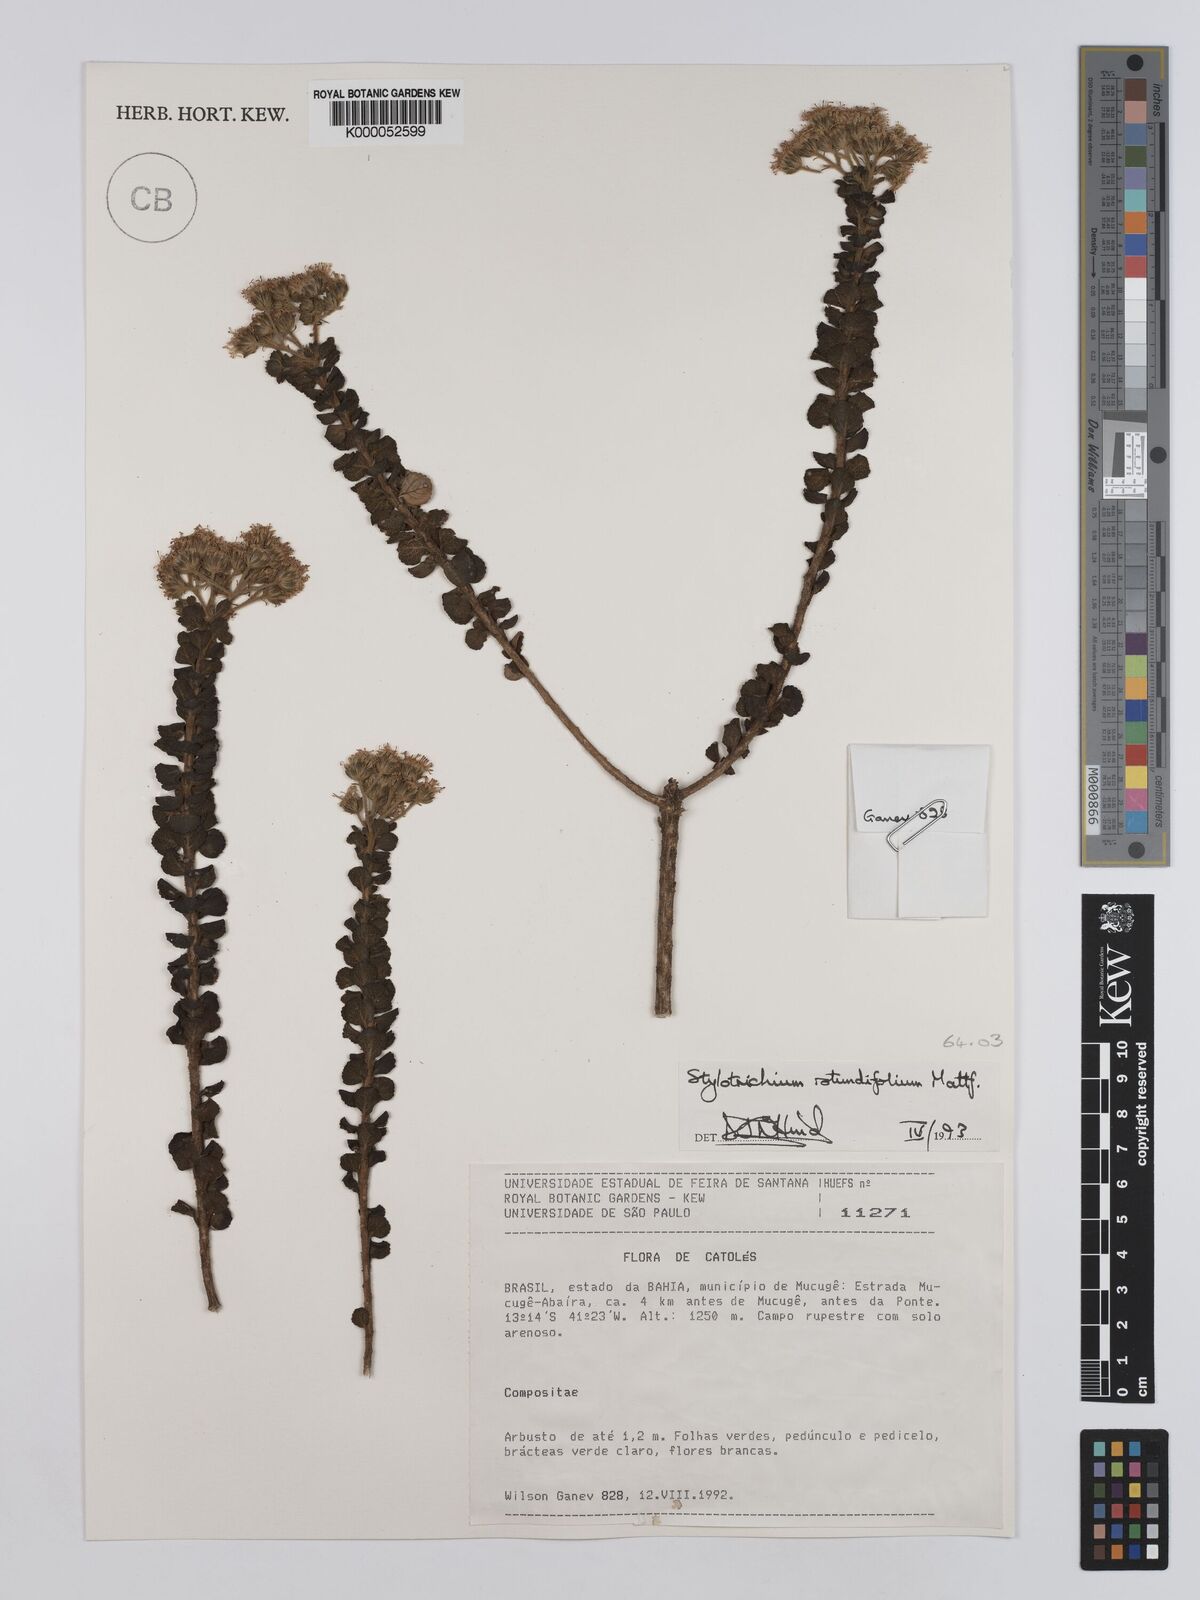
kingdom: Plantae
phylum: Tracheophyta
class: Magnoliopsida
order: Asterales
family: Asteraceae
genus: Stylotrichium
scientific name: Stylotrichium rotundifolium
